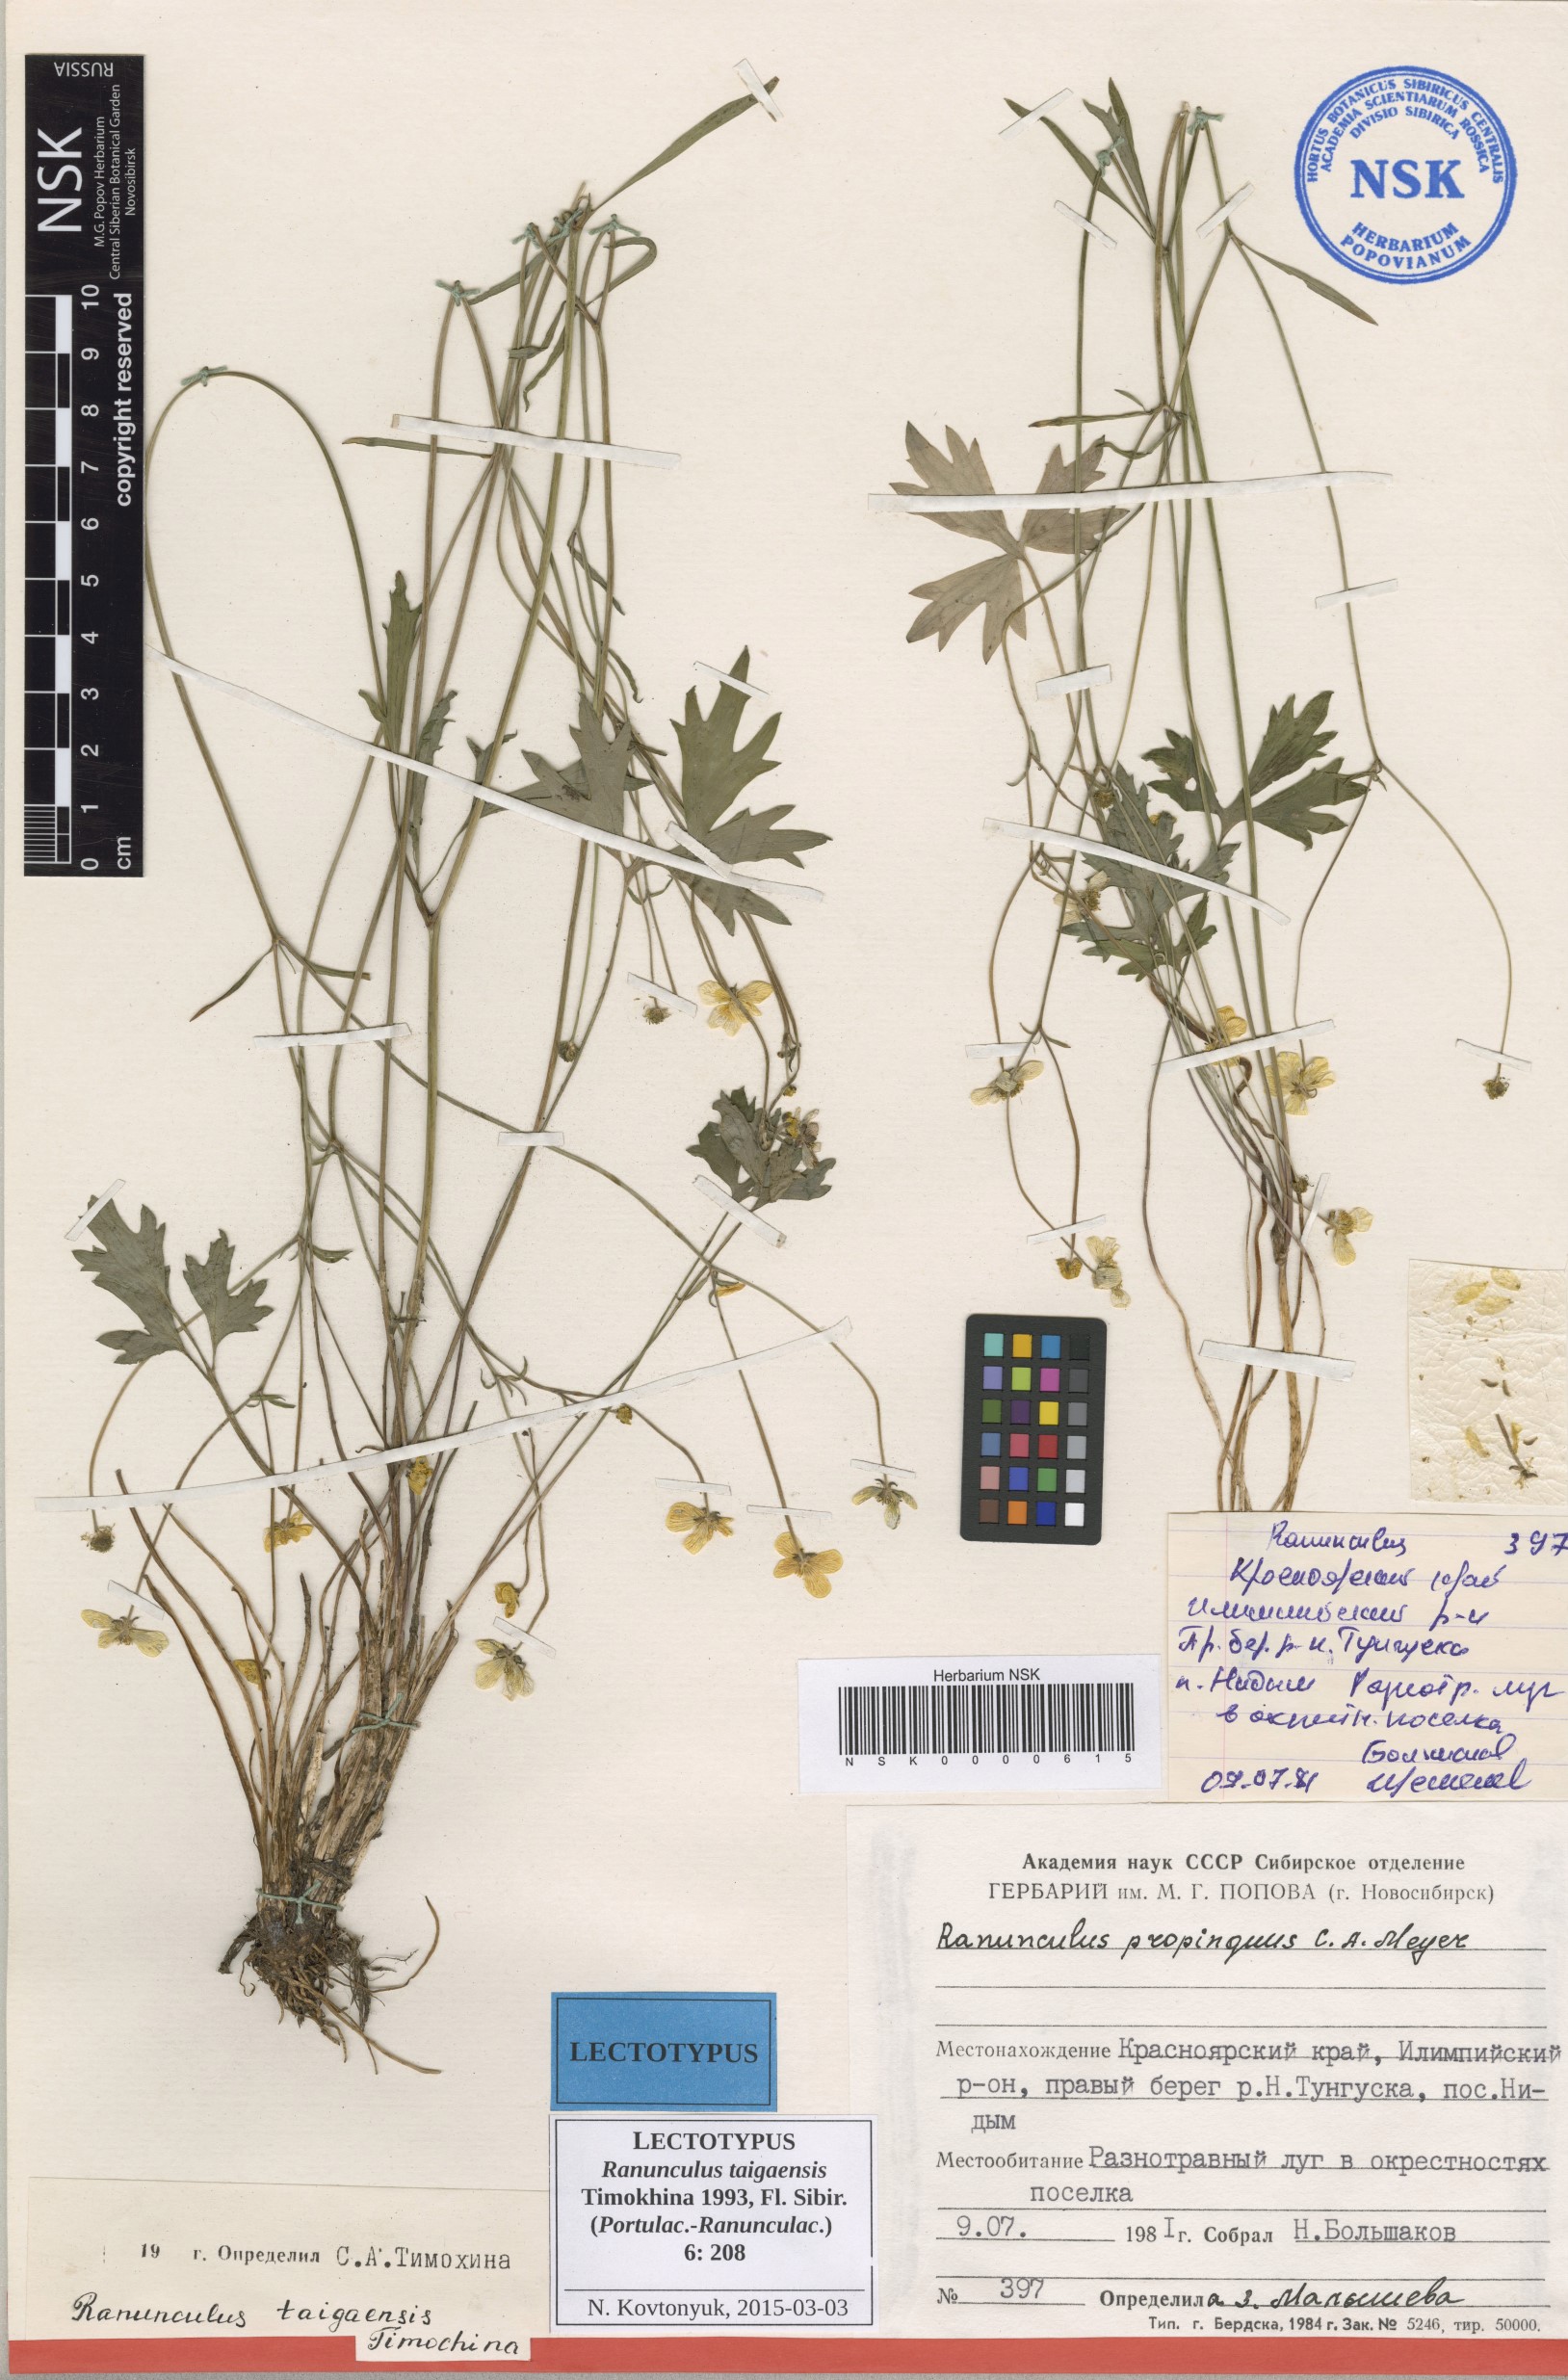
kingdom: Plantae
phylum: Tracheophyta
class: Magnoliopsida
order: Ranunculales
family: Ranunculaceae
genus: Ranunculus
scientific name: Ranunculus taigaensis
